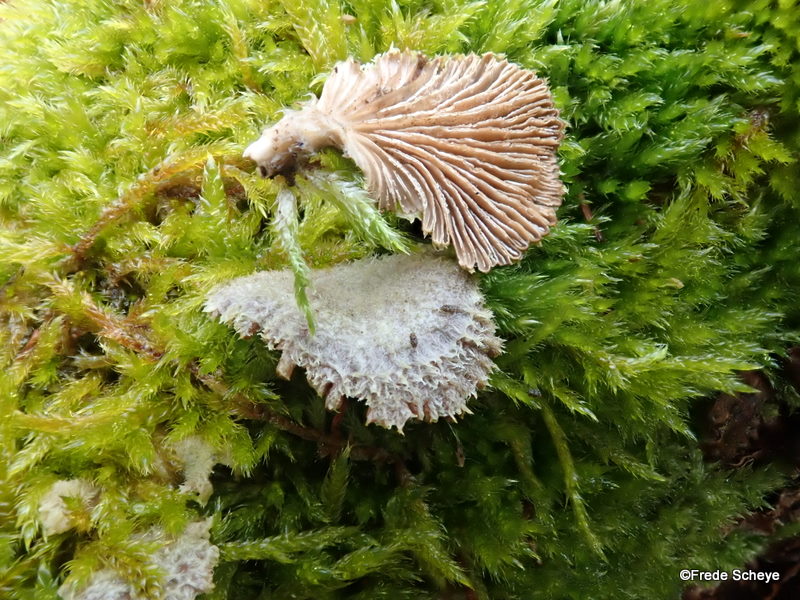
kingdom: Fungi
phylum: Basidiomycota
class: Agaricomycetes
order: Agaricales
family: Schizophyllaceae
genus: Schizophyllum
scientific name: Schizophyllum commune
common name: kløvblad
